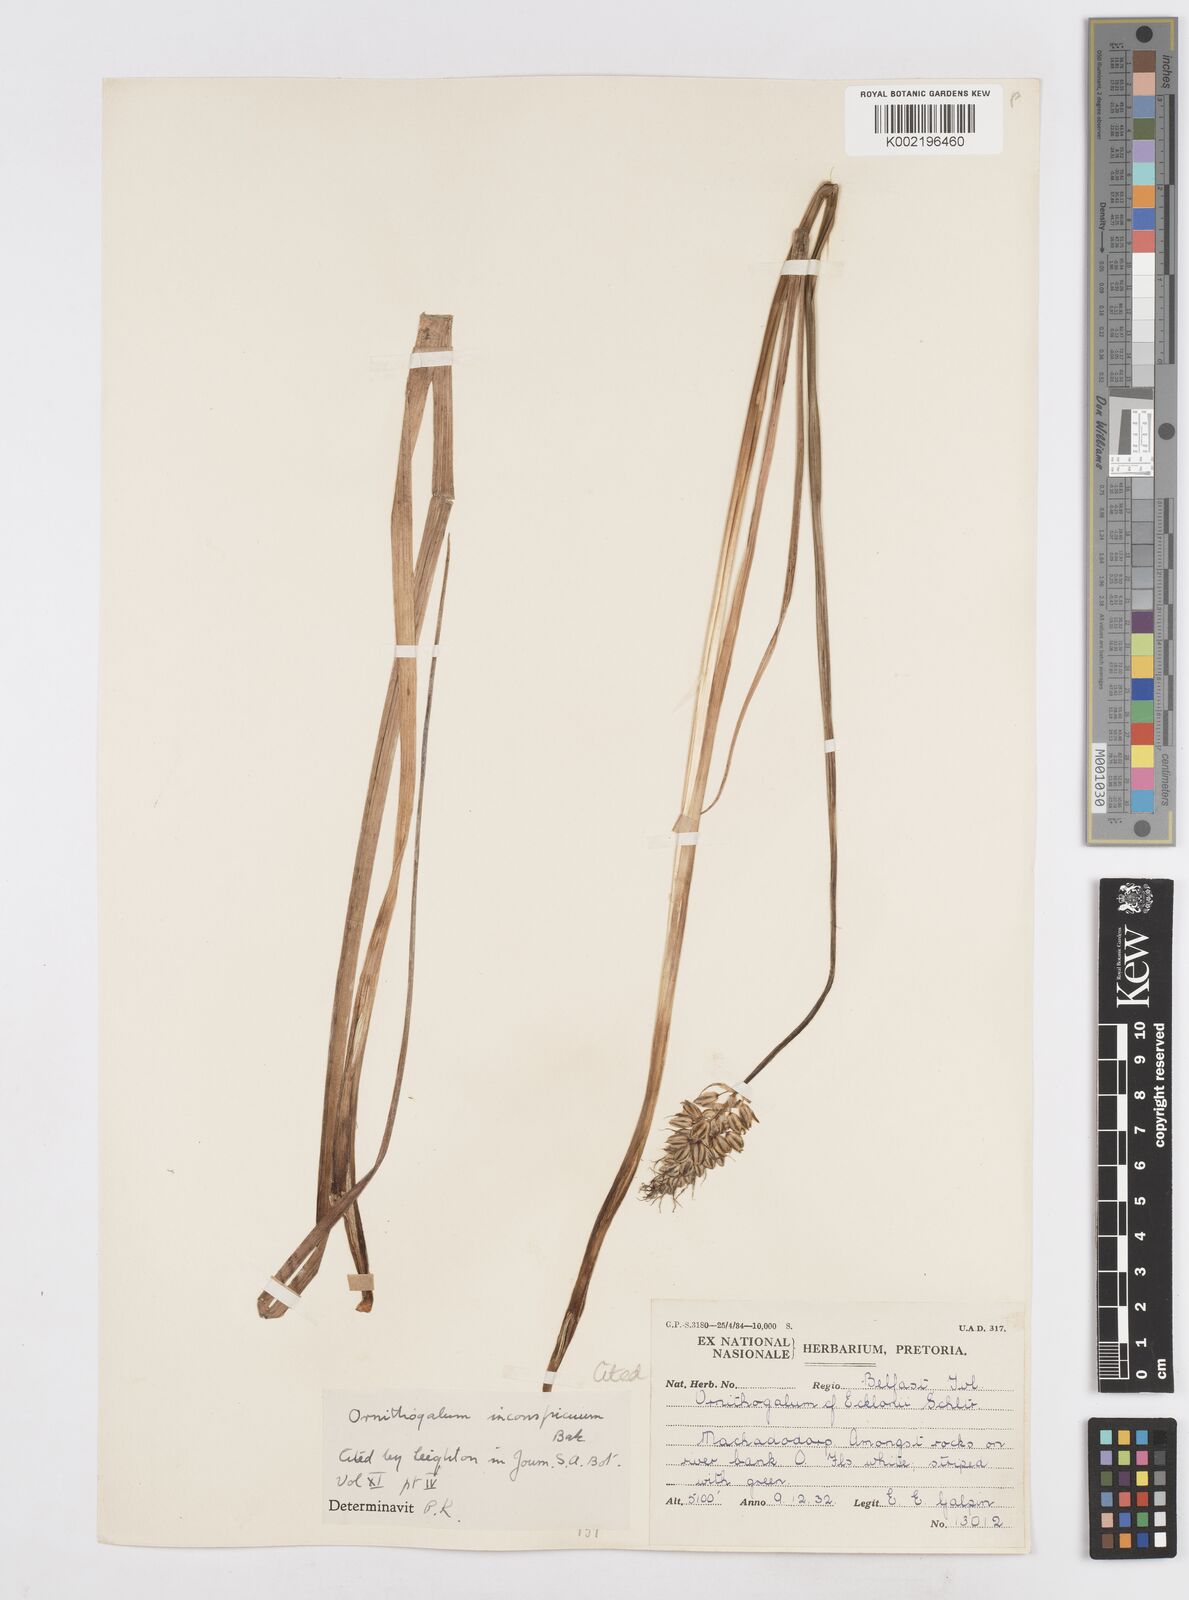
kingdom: Plantae
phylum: Tracheophyta
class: Liliopsida
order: Asparagales
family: Asparagaceae
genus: Albuca
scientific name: Albuca virens
